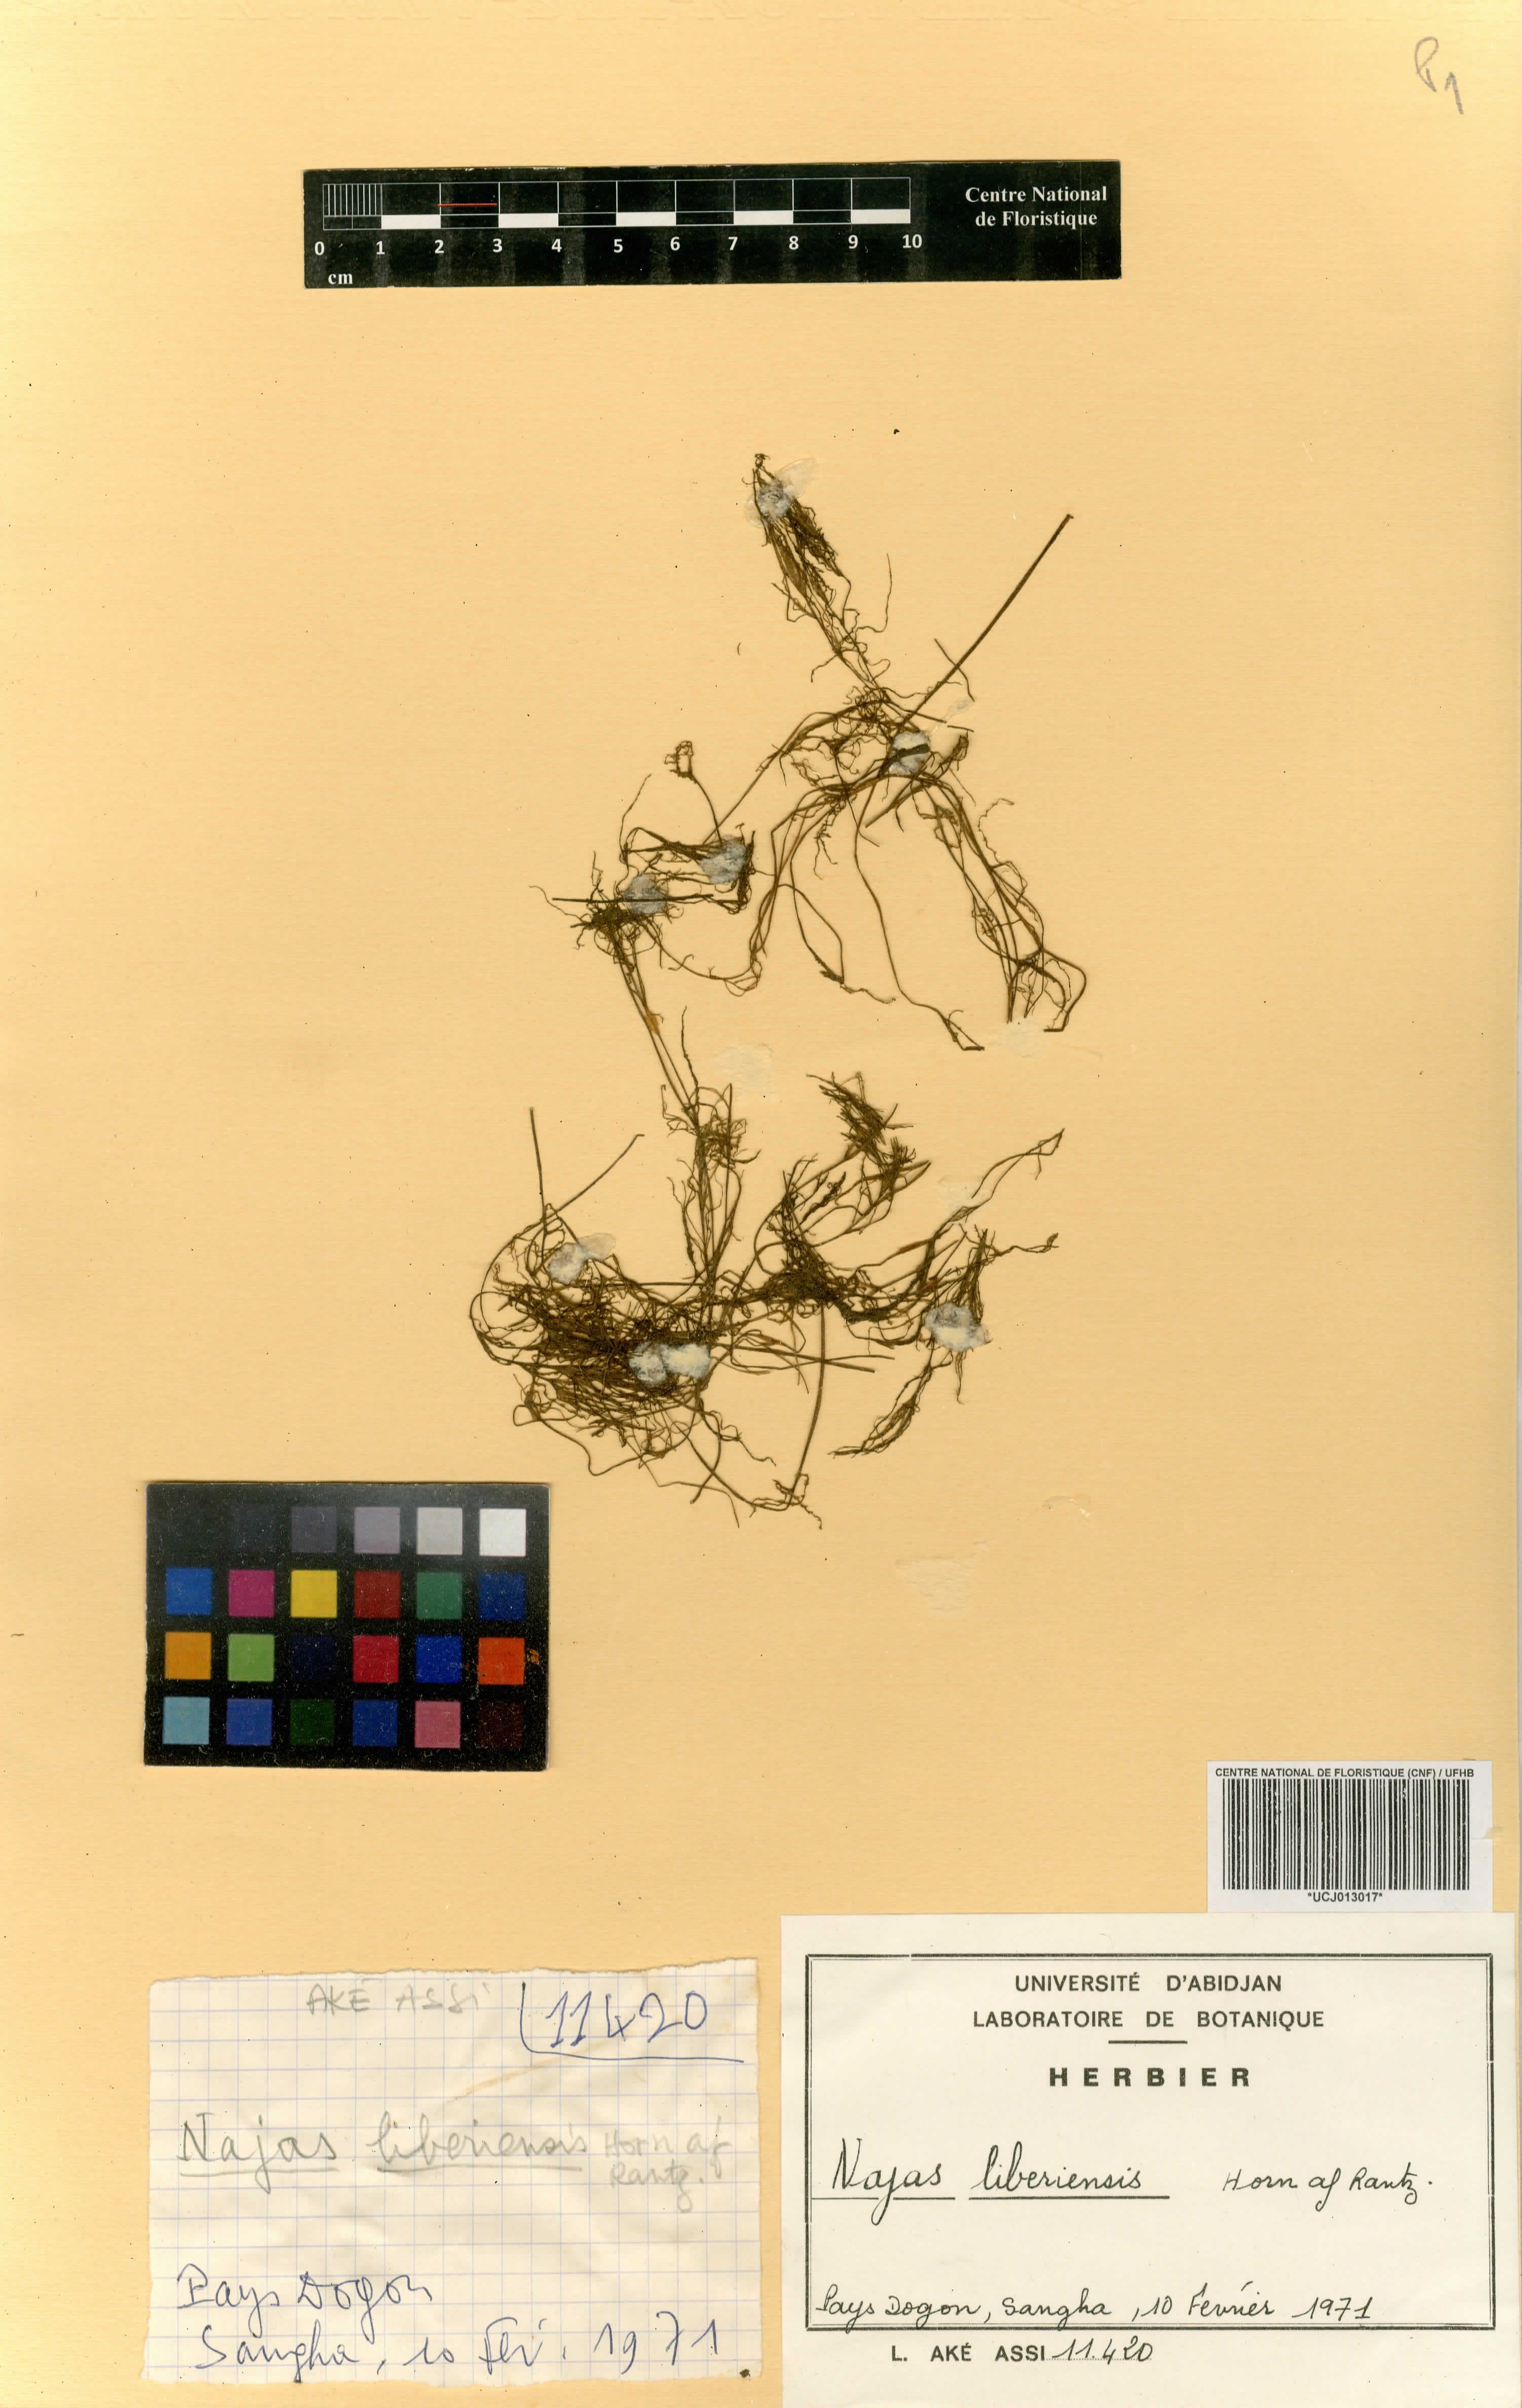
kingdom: Plantae
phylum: Tracheophyta
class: Liliopsida
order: Alismatales
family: Hydrocharitaceae
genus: Najas
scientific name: Najas baldwinii
